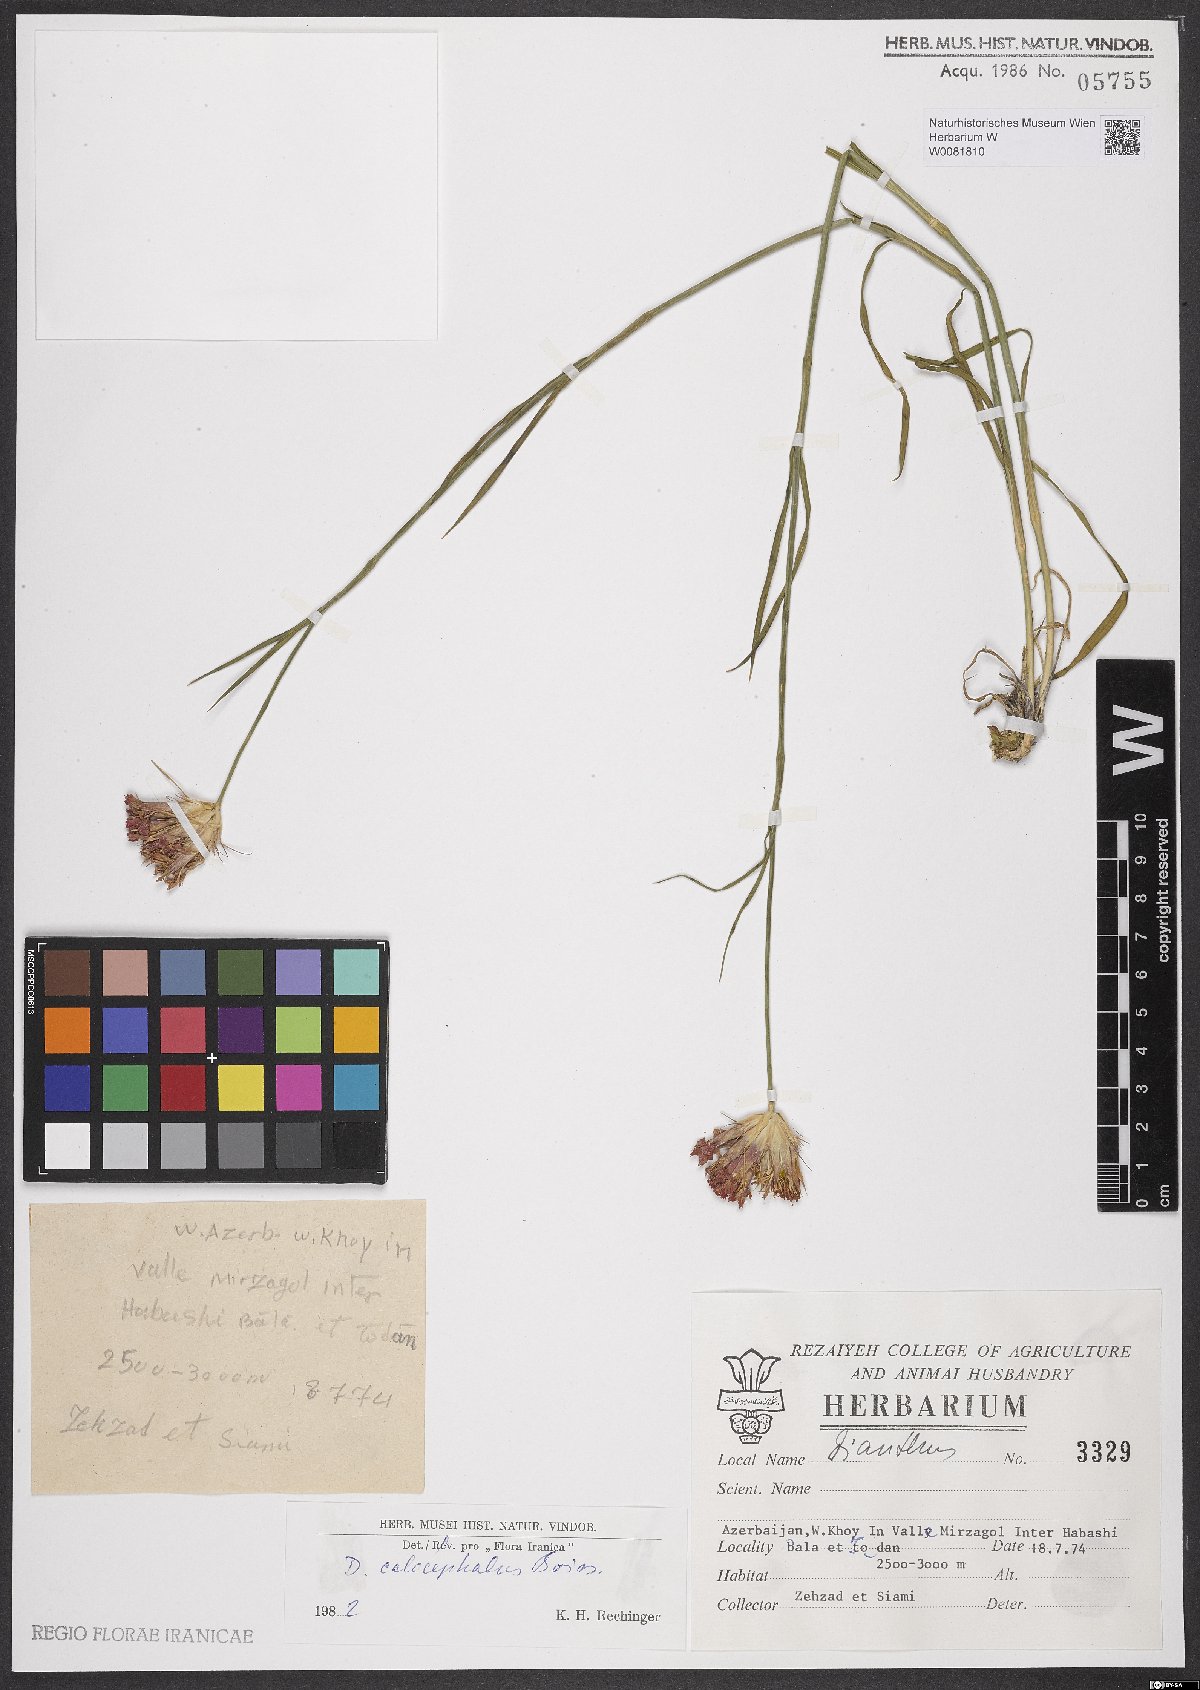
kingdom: Plantae
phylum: Tracheophyta
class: Magnoliopsida
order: Caryophyllales
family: Caryophyllaceae
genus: Dianthus
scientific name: Dianthus cruentus
